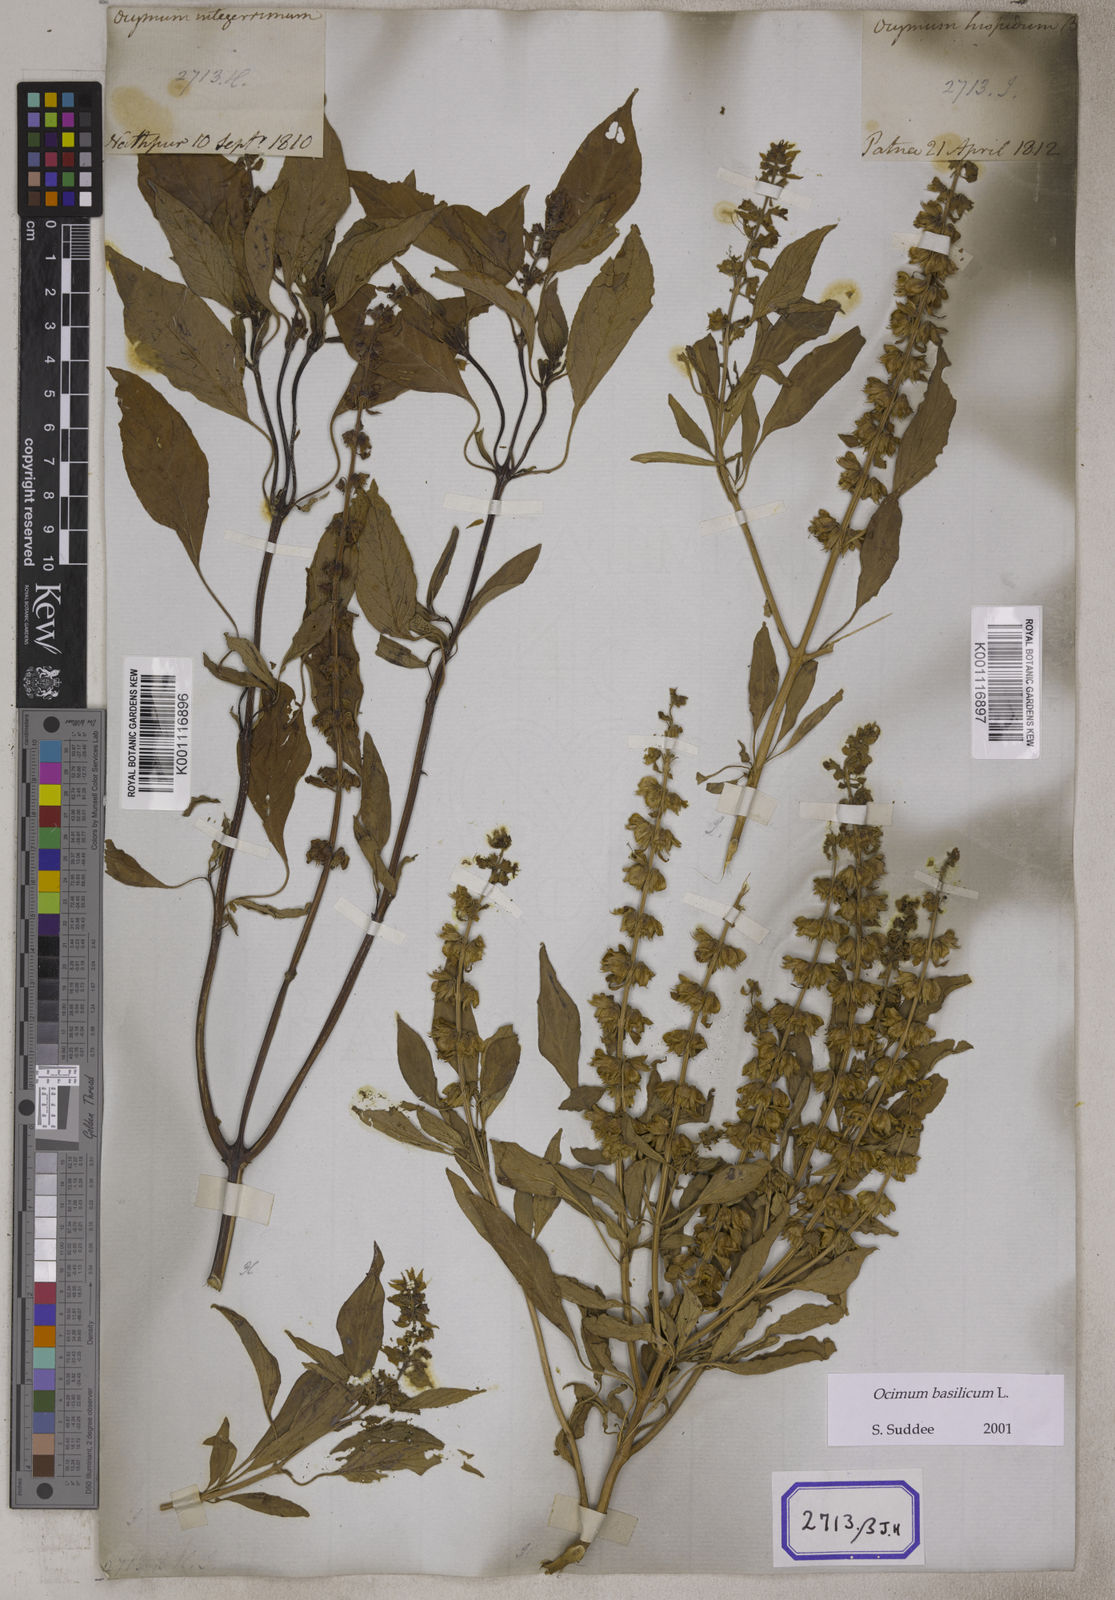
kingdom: Plantae
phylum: Tracheophyta
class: Magnoliopsida
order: Lamiales
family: Lamiaceae
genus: Ocimum
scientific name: Ocimum
